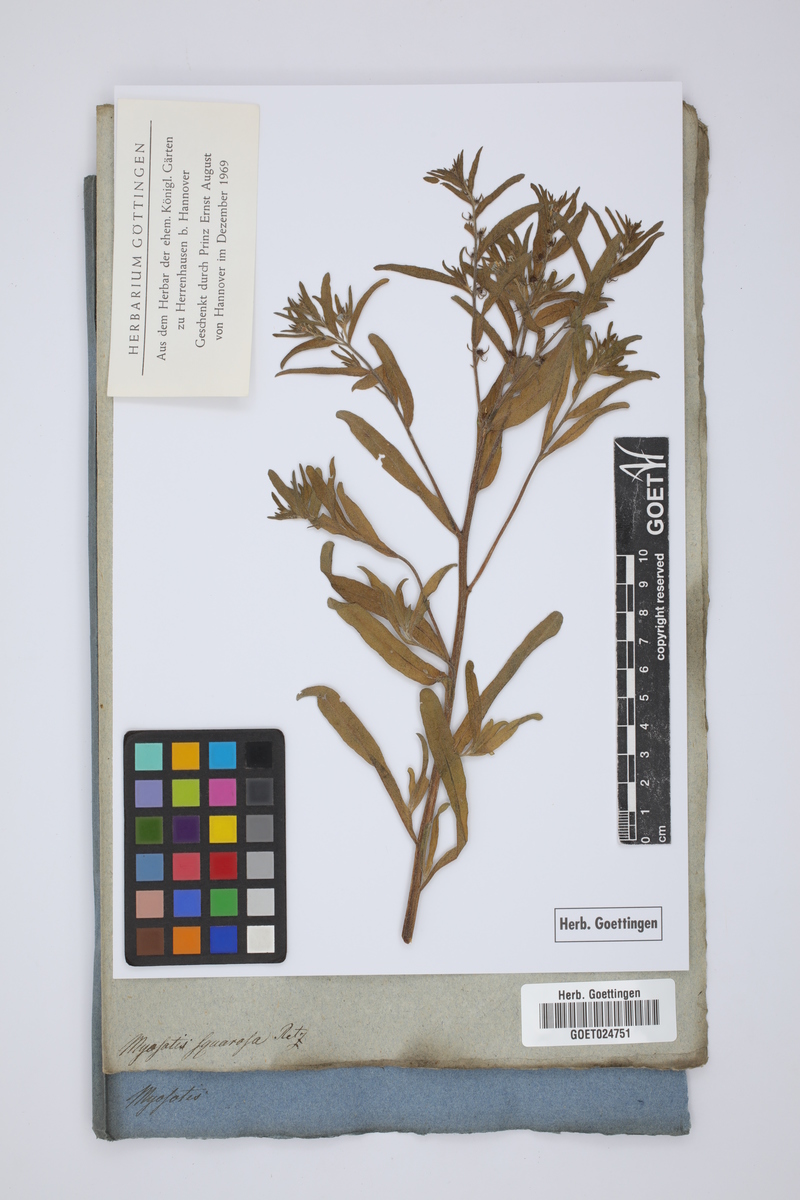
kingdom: Plantae
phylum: Tracheophyta
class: Magnoliopsida
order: Boraginales
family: Boraginaceae
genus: Lappula
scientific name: Lappula squarrosa
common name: European stickseed
